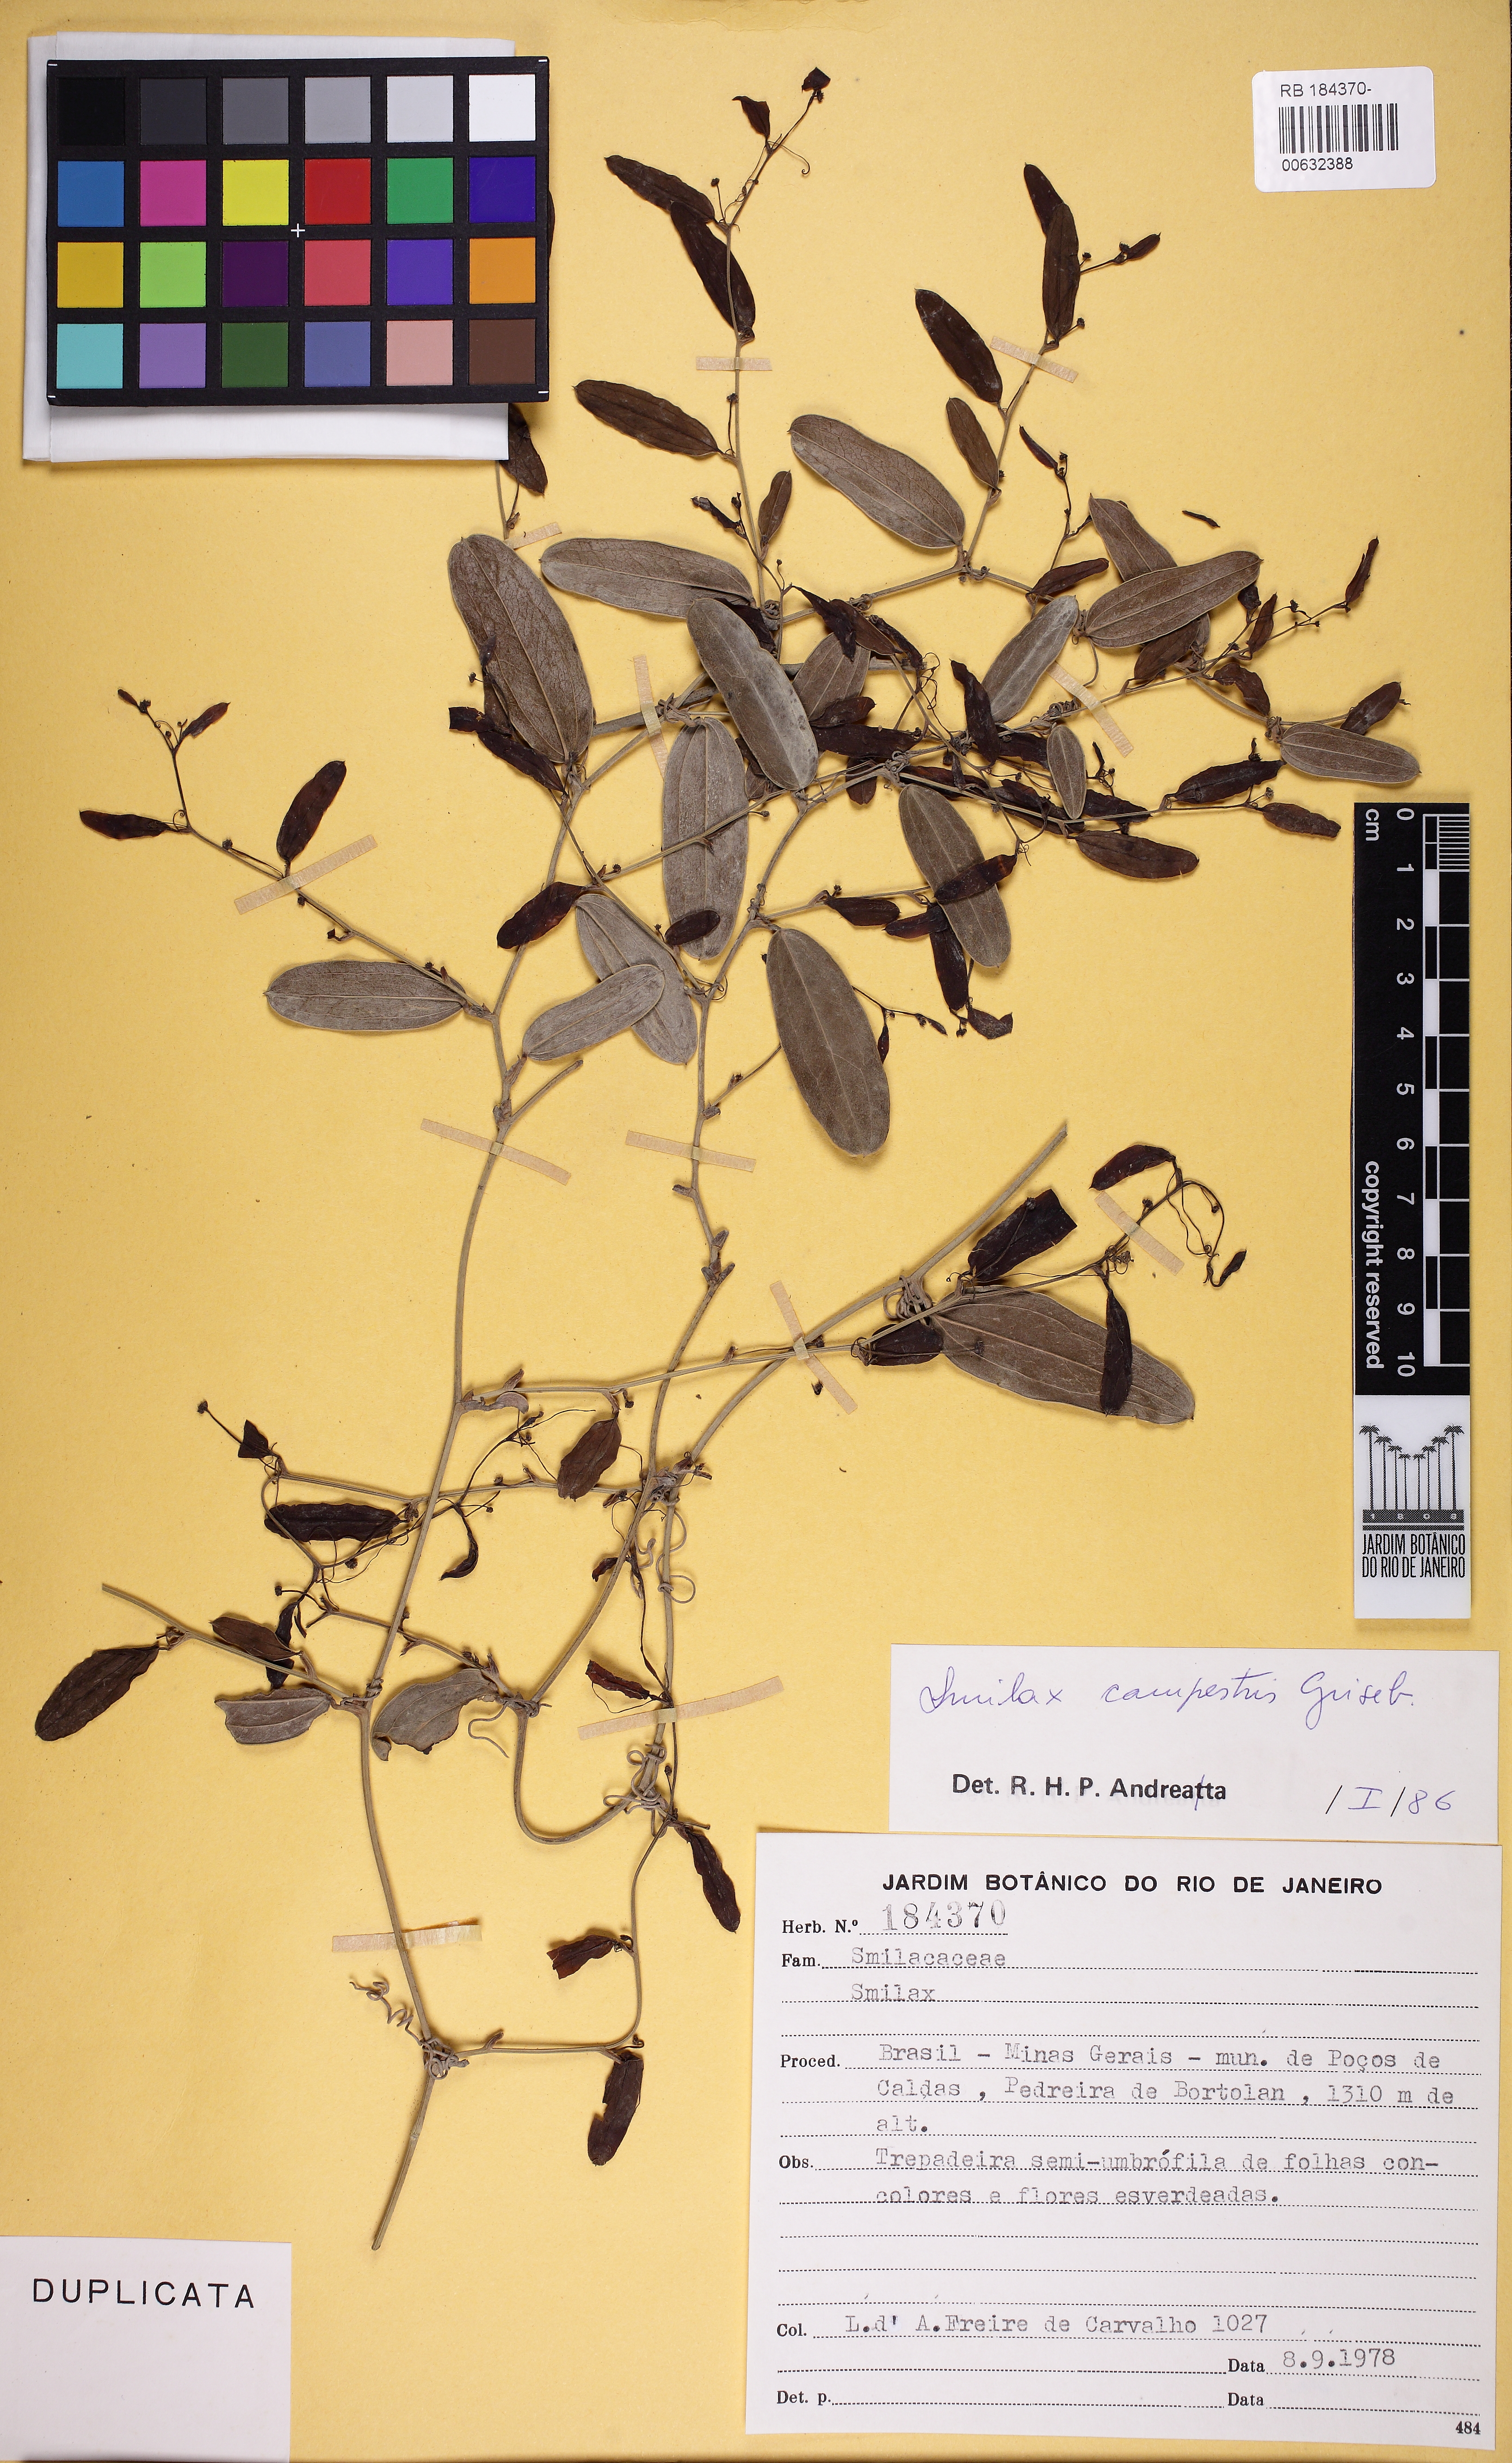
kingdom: Plantae
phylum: Tracheophyta
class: Liliopsida
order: Liliales
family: Smilacaceae
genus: Smilax
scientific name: Smilax campestris
